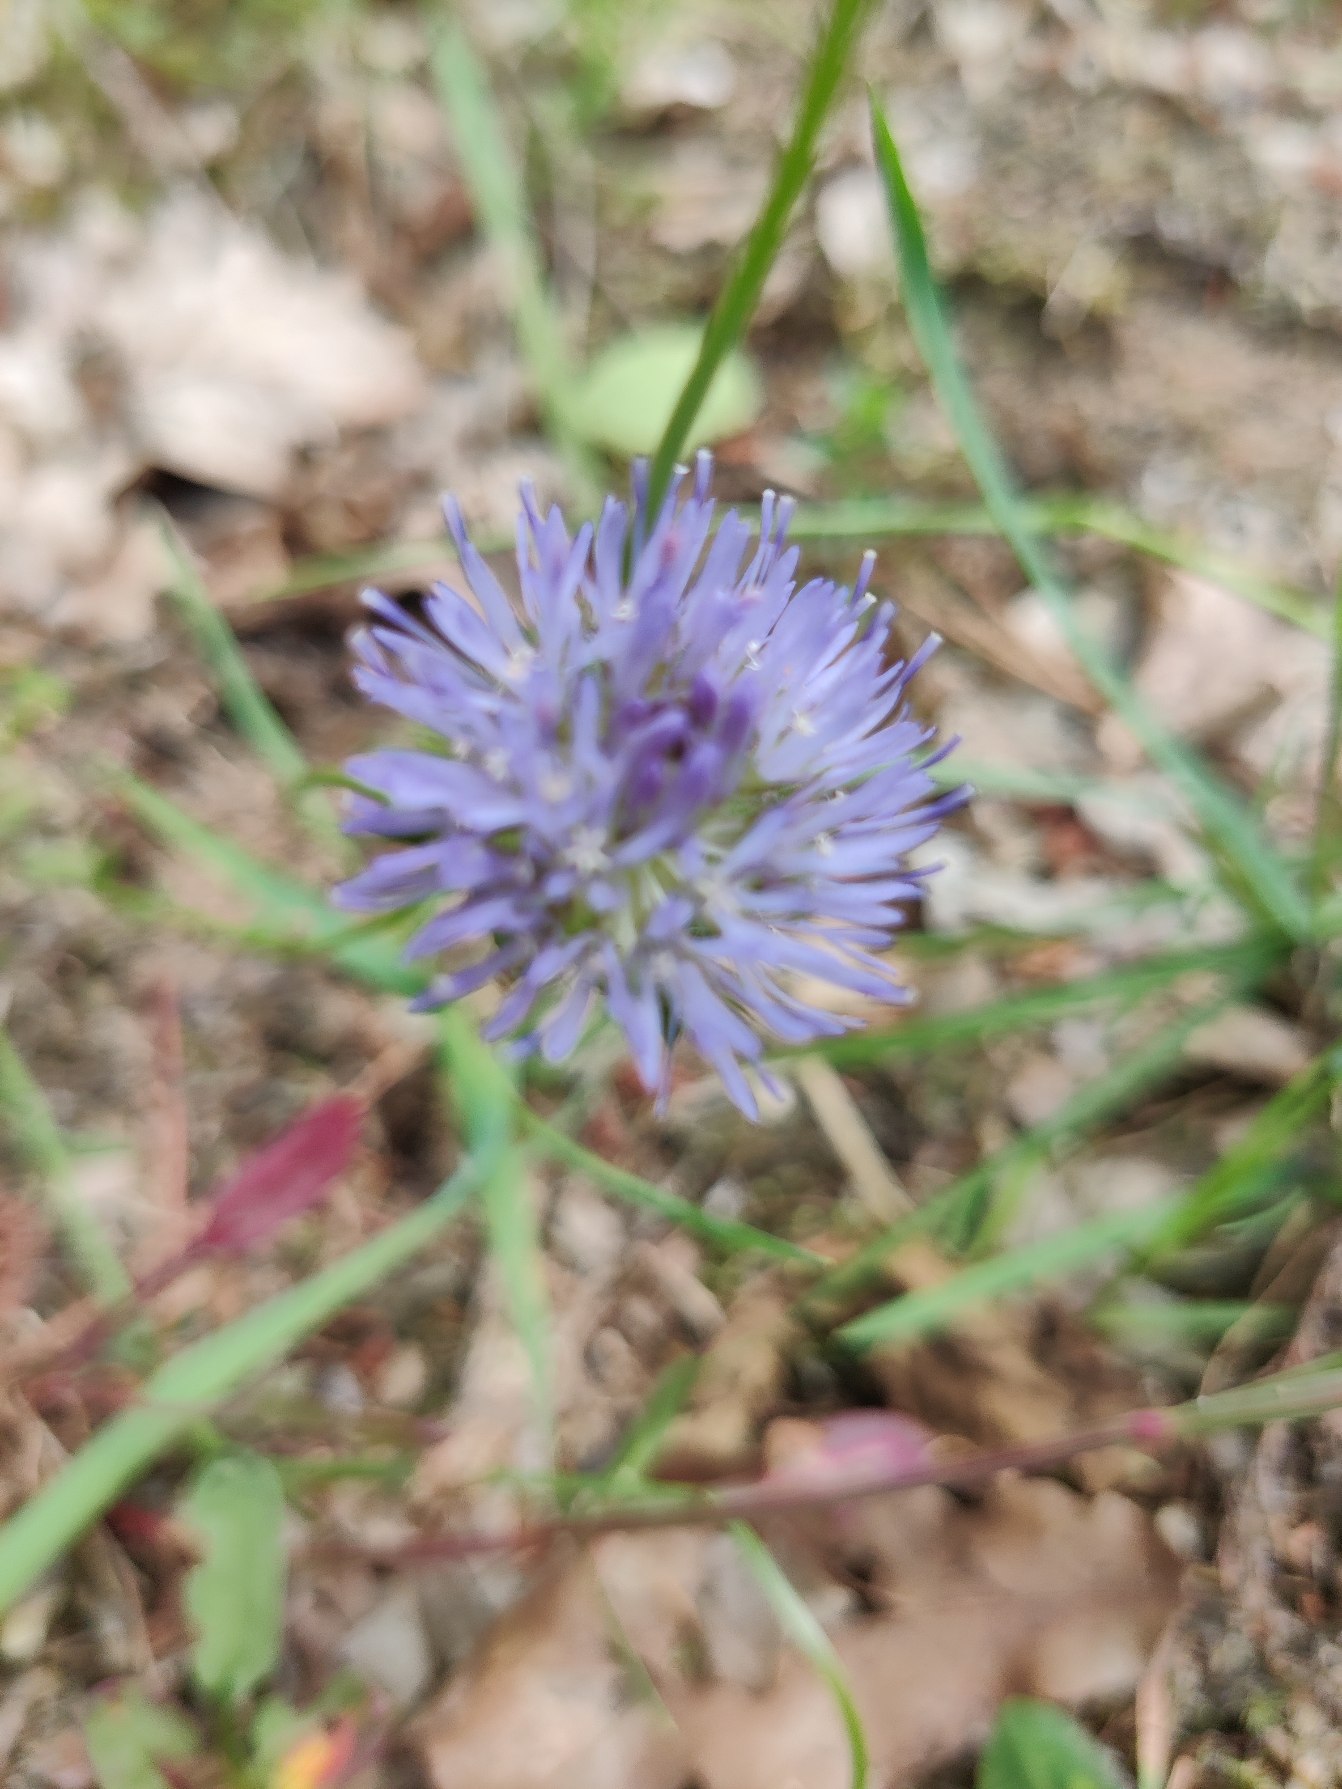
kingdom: Plantae
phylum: Tracheophyta
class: Magnoliopsida
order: Asterales
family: Campanulaceae
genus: Jasione
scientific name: Jasione montana
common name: Blåmunke
